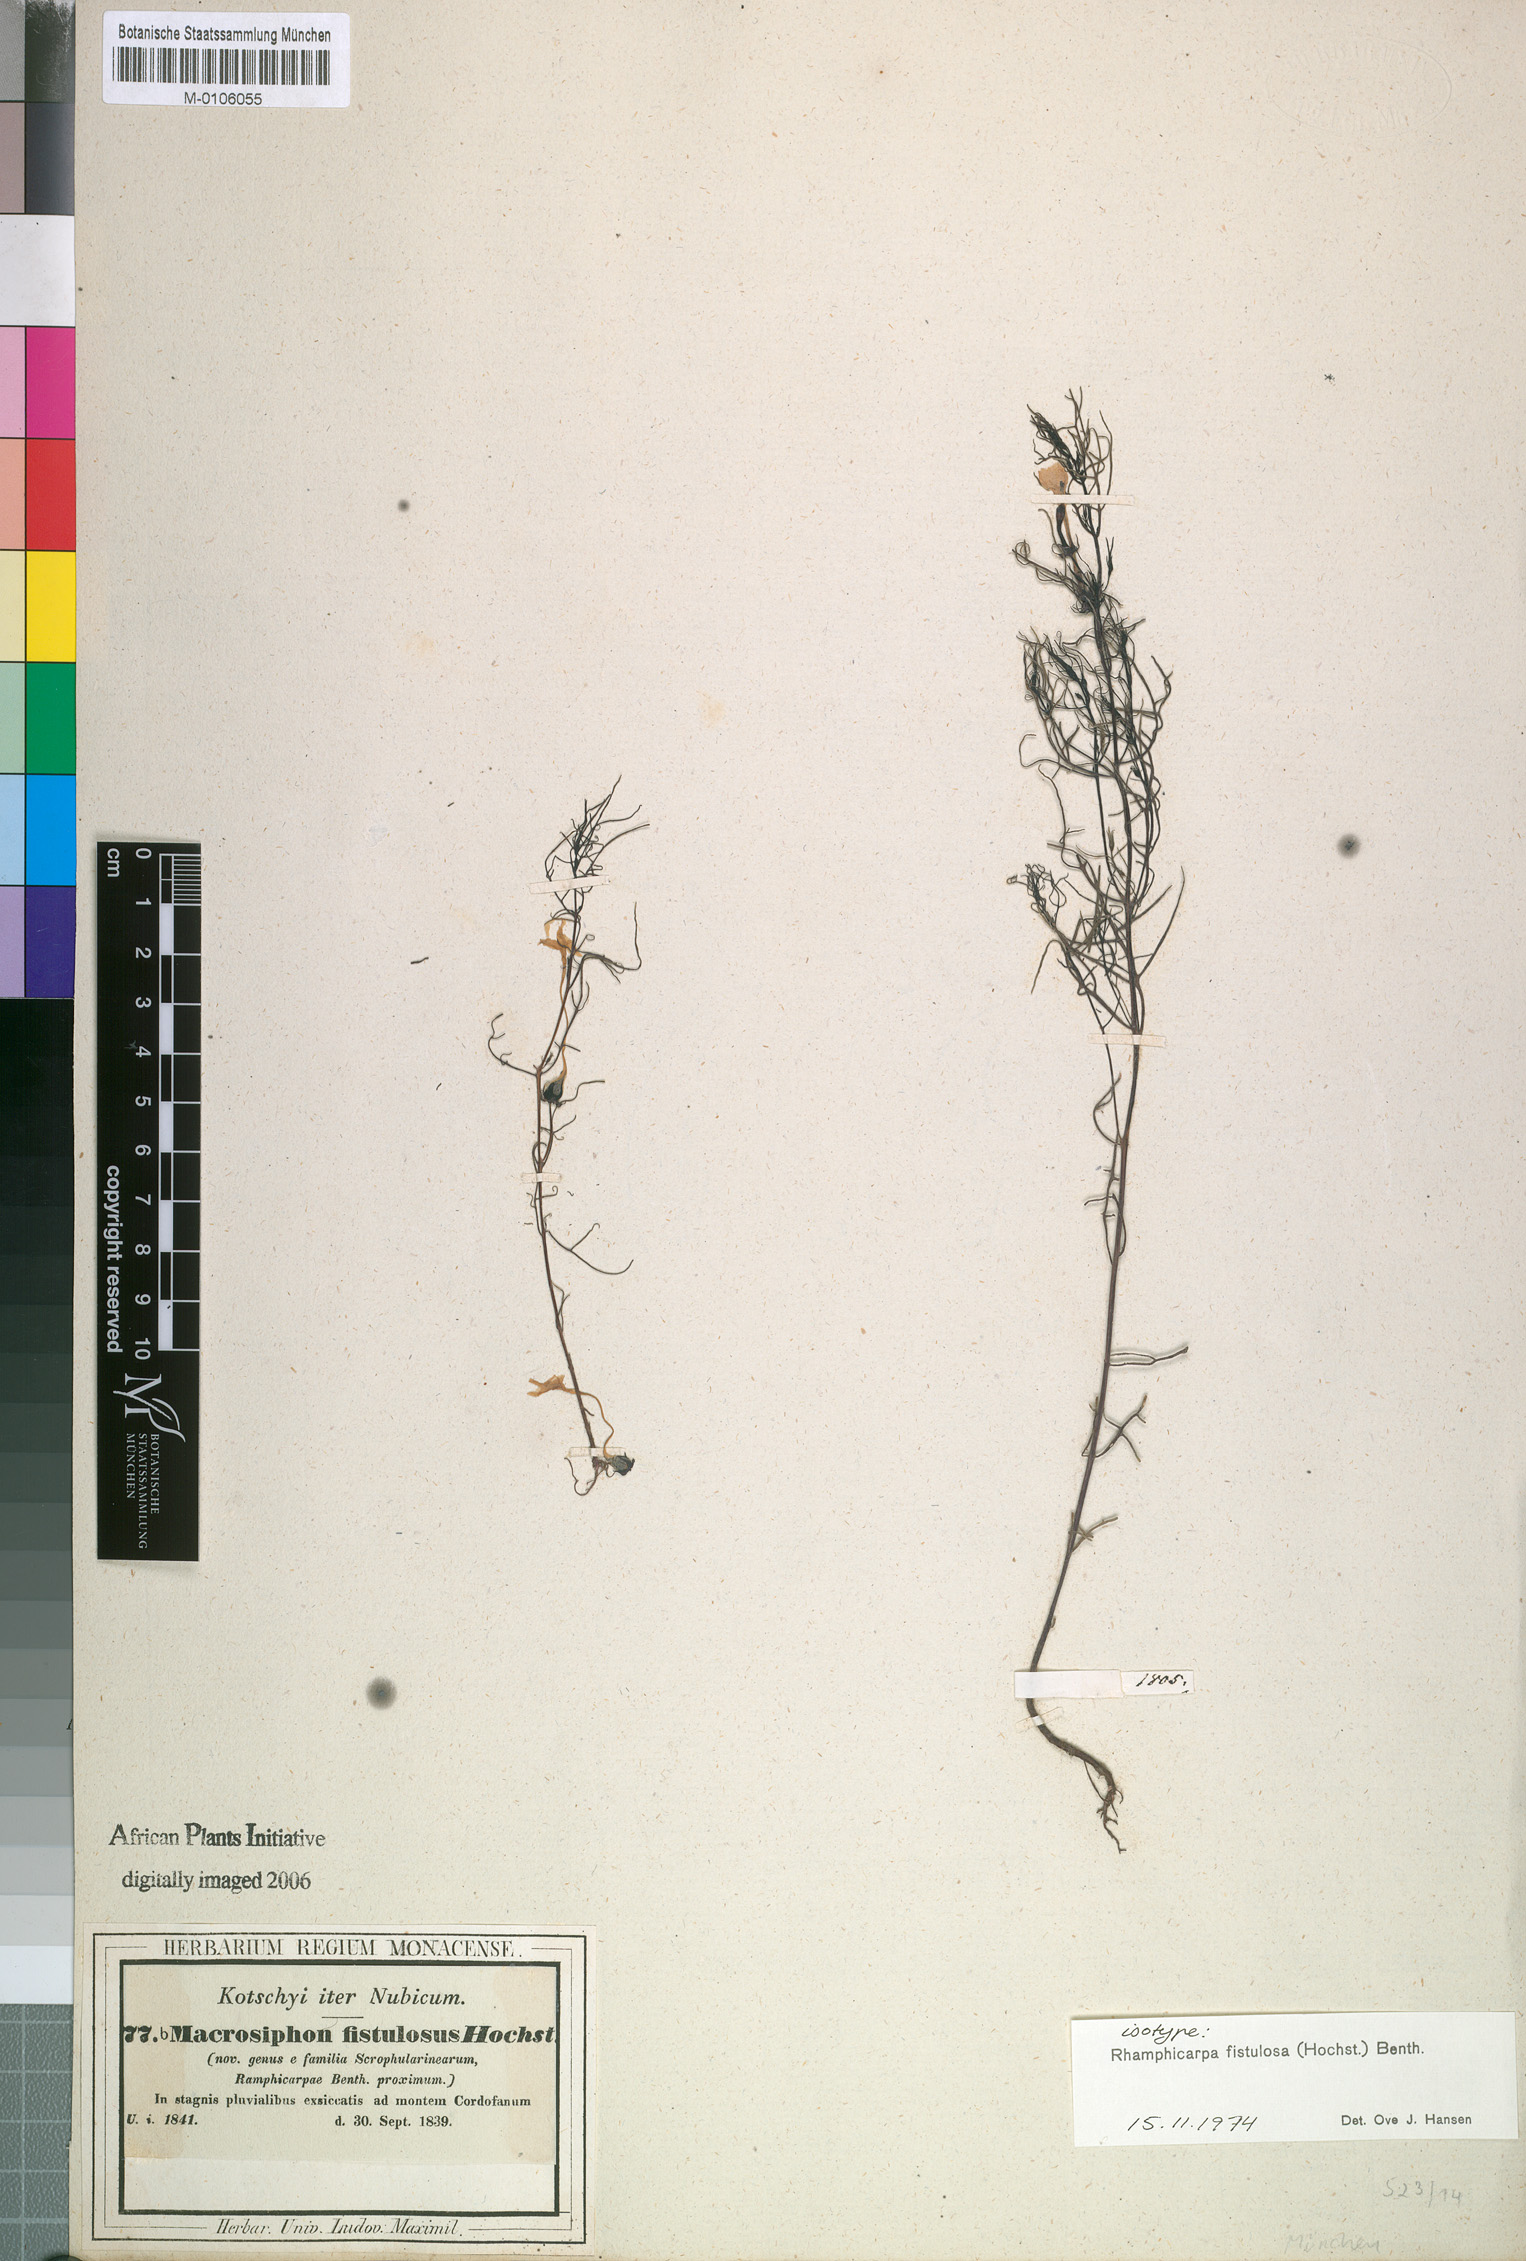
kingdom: Plantae
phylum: Tracheophyta
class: Magnoliopsida
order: Lamiales
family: Orobanchaceae
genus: Rhamphicarpa
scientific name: Rhamphicarpa fistulosa
